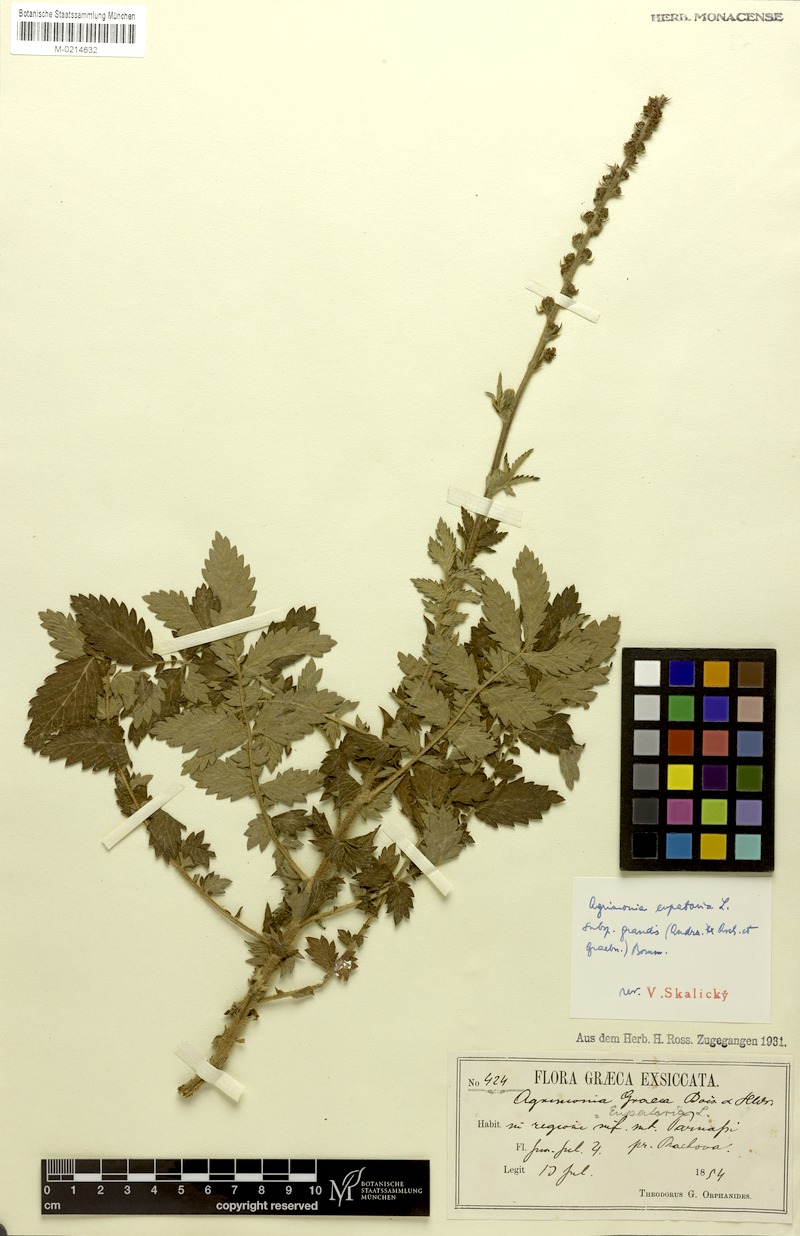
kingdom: Plantae
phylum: Tracheophyta
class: Magnoliopsida
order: Rosales
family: Rosaceae
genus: Agrimonia
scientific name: Agrimonia eupatoria
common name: Agrimony
